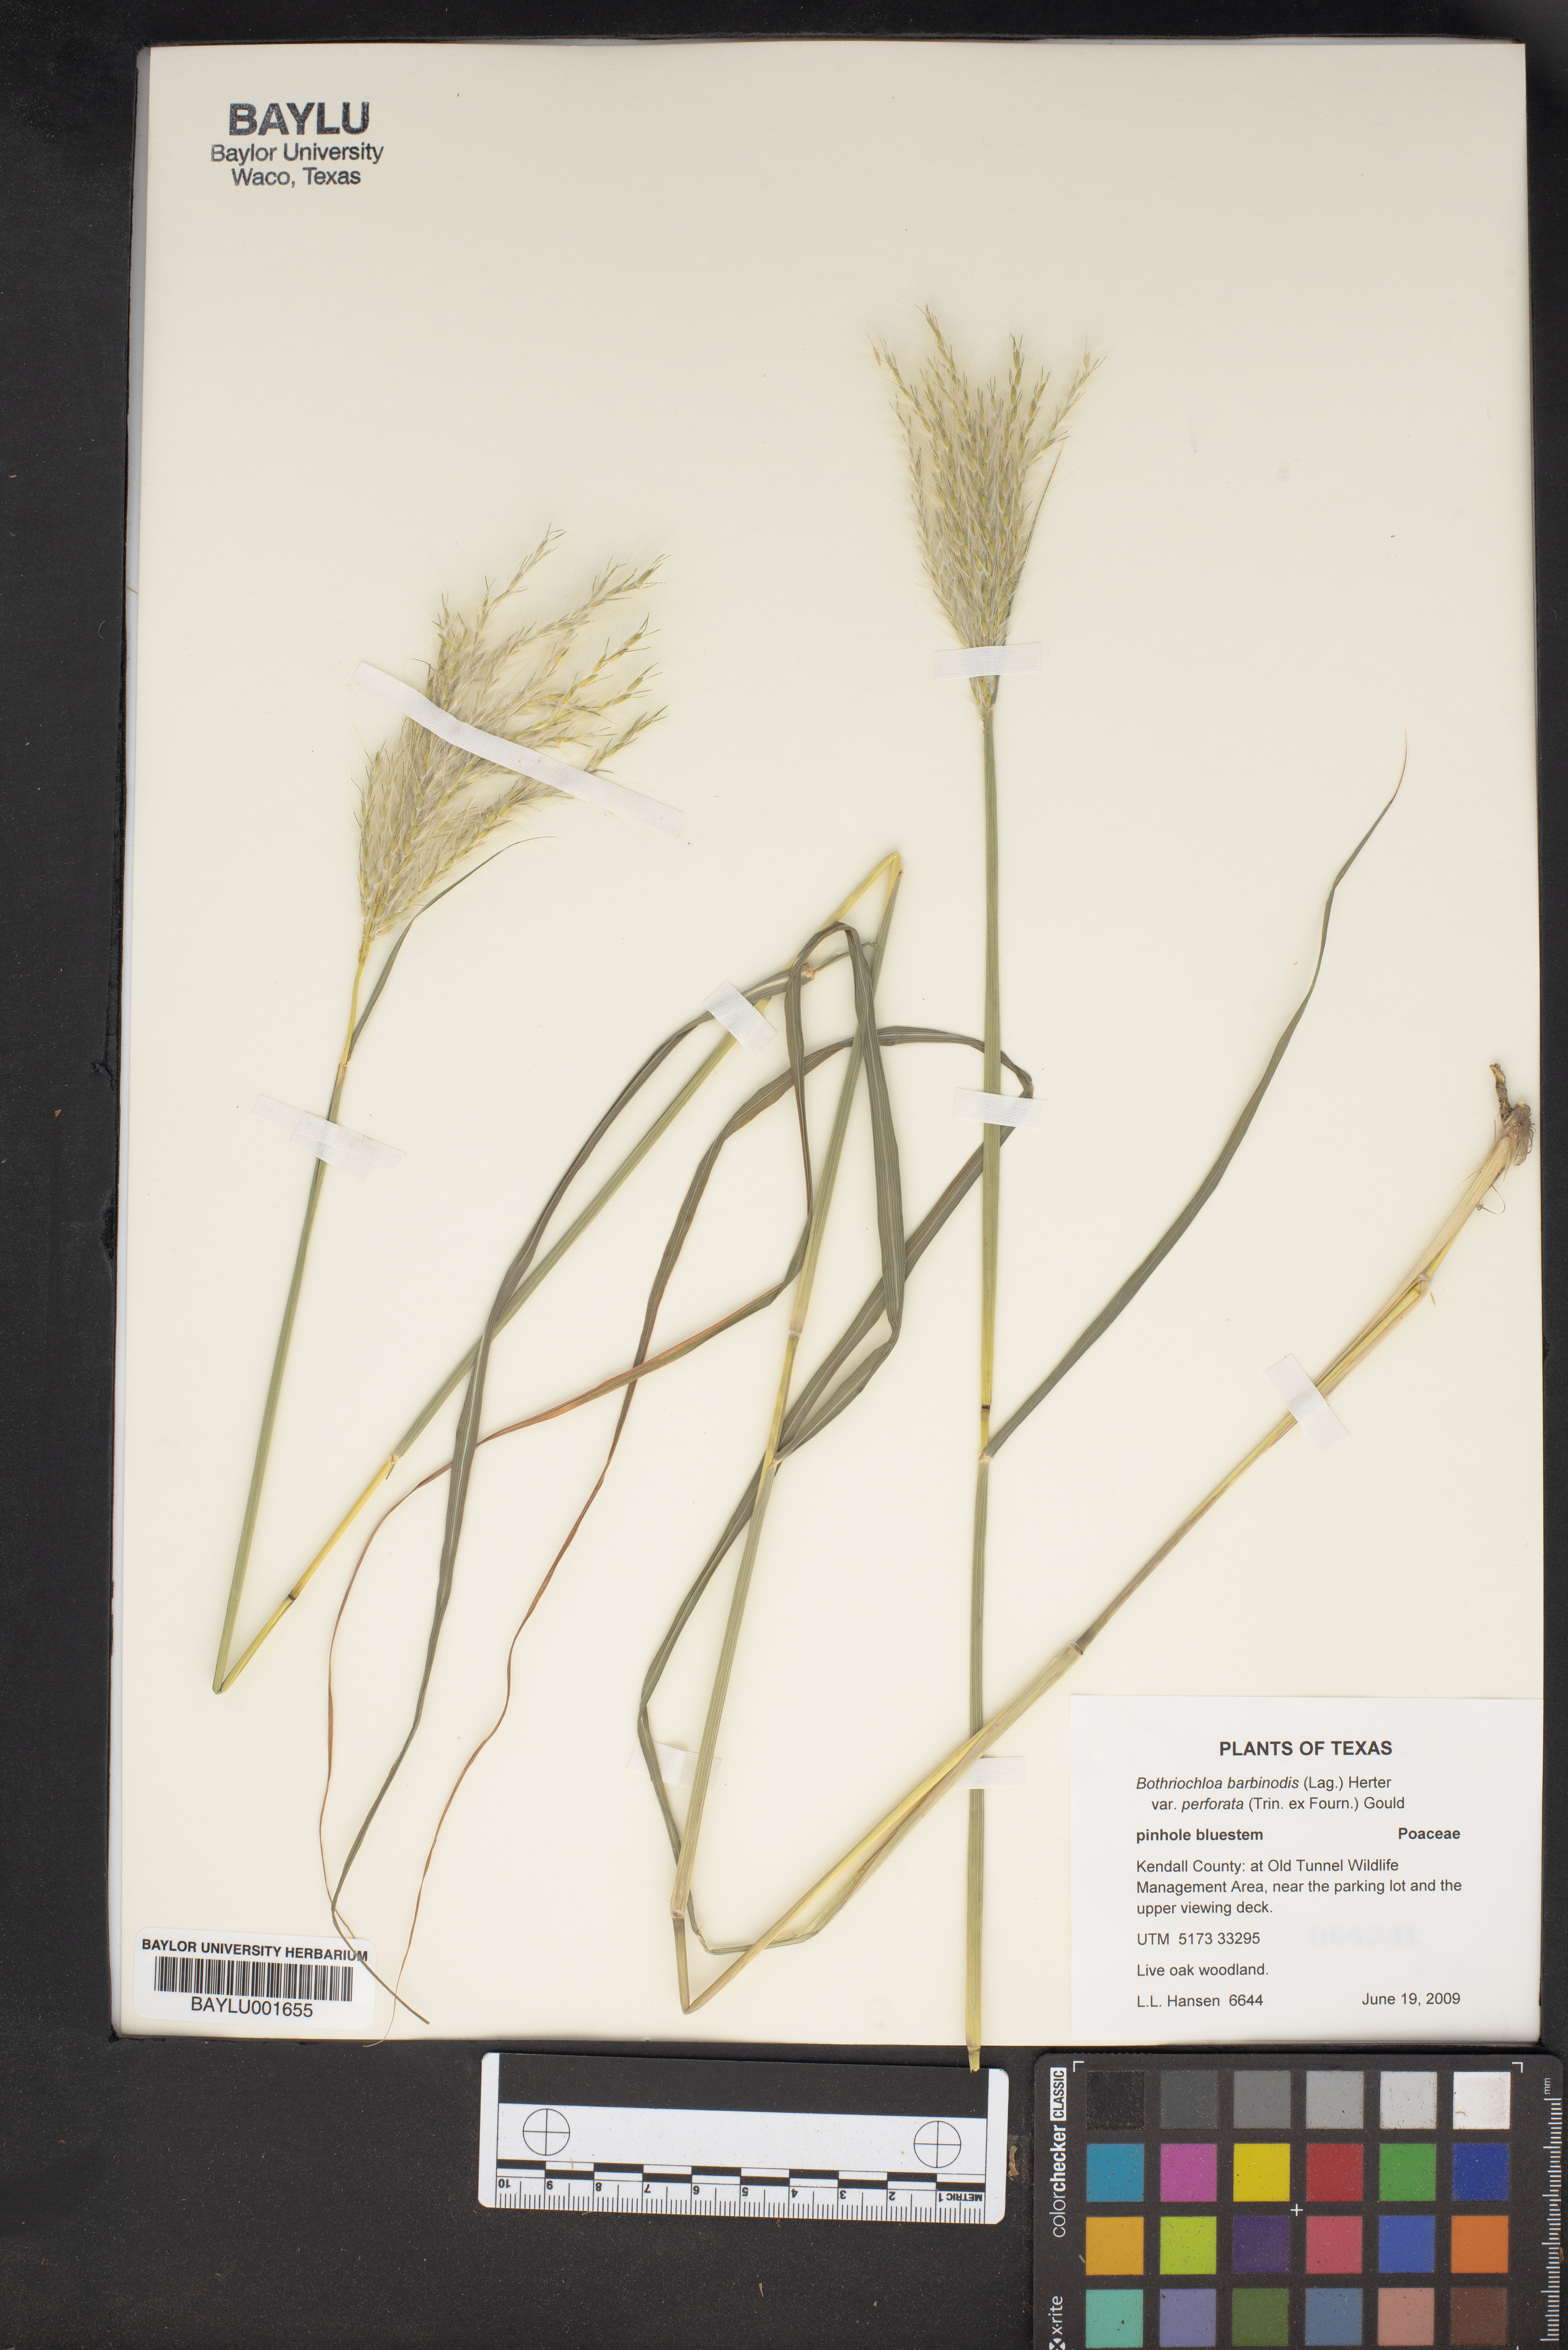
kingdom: Plantae
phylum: Tracheophyta
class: Liliopsida
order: Poales
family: Poaceae
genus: Bothriochloa
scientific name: Bothriochloa barbinodis
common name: Cane bluestem
